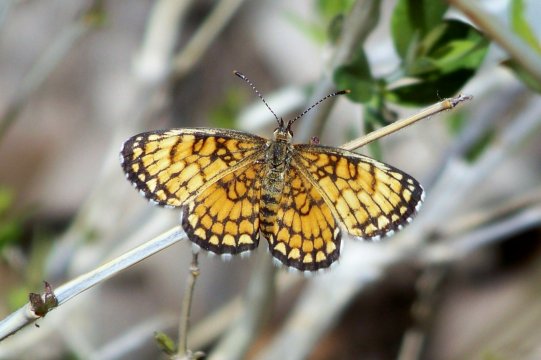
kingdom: Animalia
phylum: Arthropoda
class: Insecta
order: Lepidoptera
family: Nymphalidae
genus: Texola
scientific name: Texola
